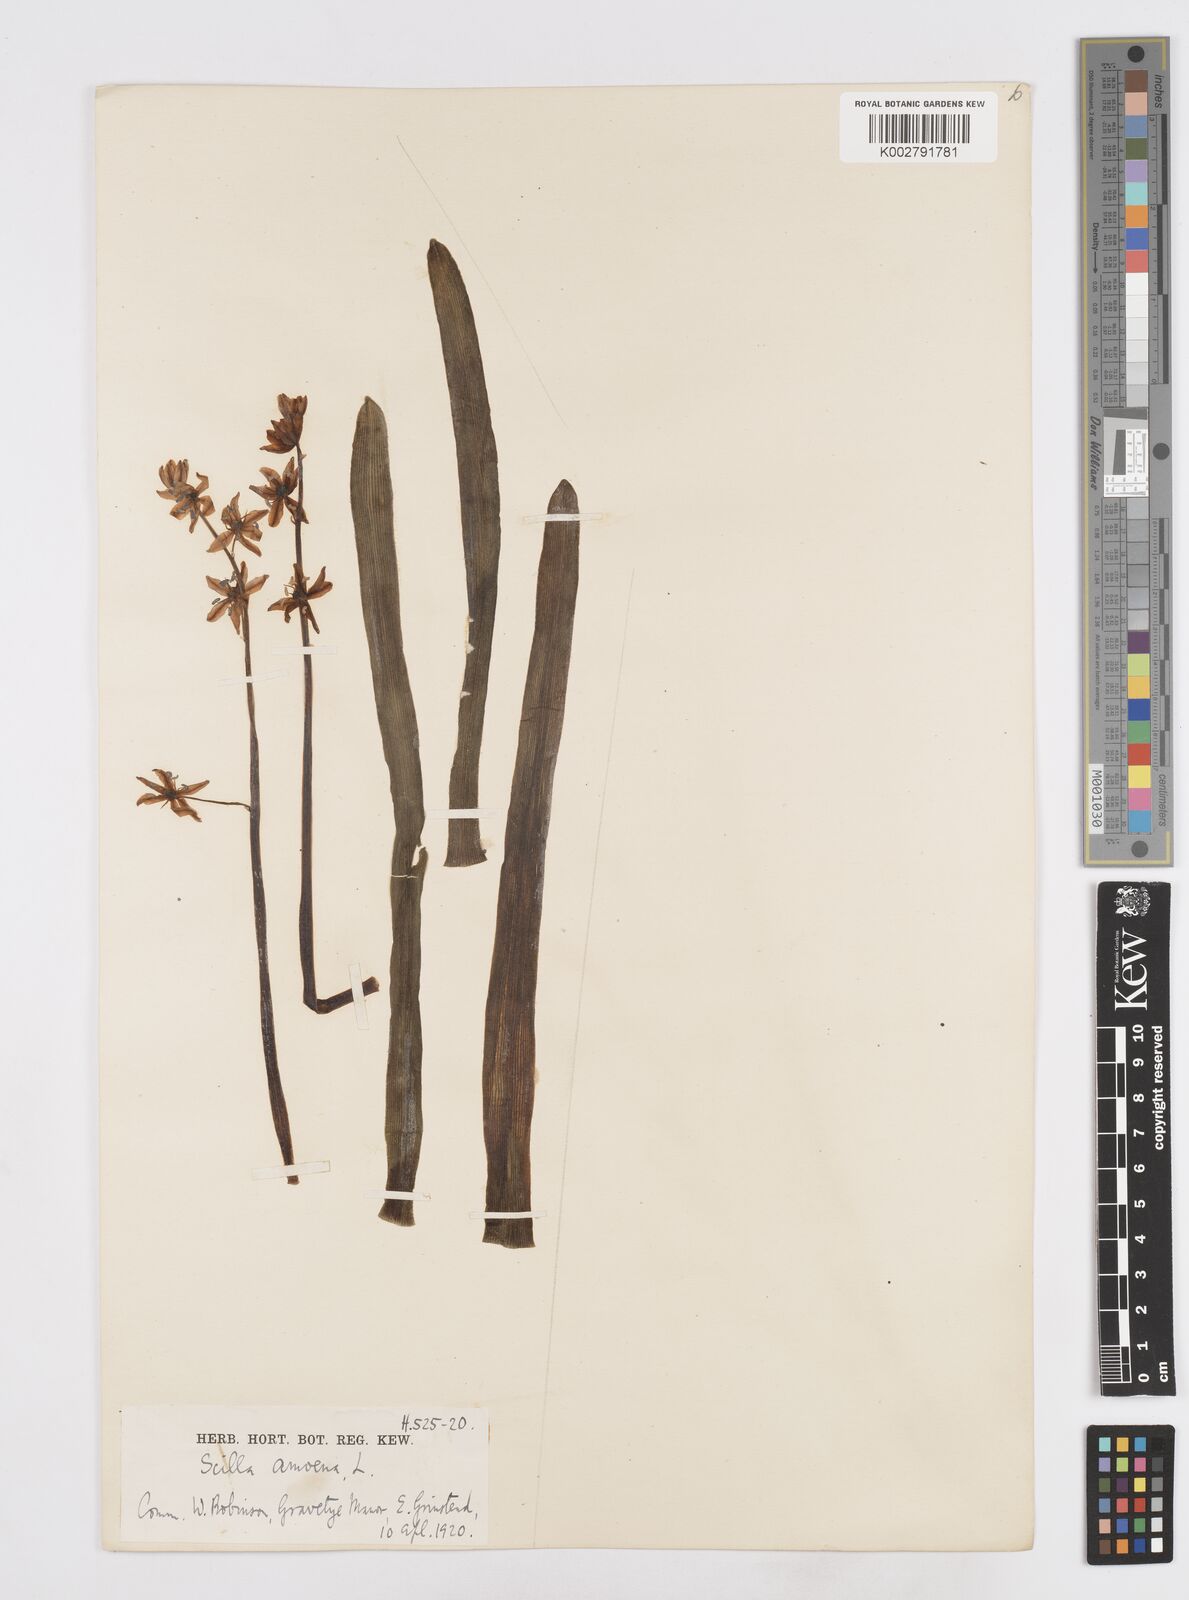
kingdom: Plantae
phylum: Tracheophyta
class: Liliopsida
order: Asparagales
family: Asparagaceae
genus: Scilla
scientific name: Scilla amoena
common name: Star-hyacinth
